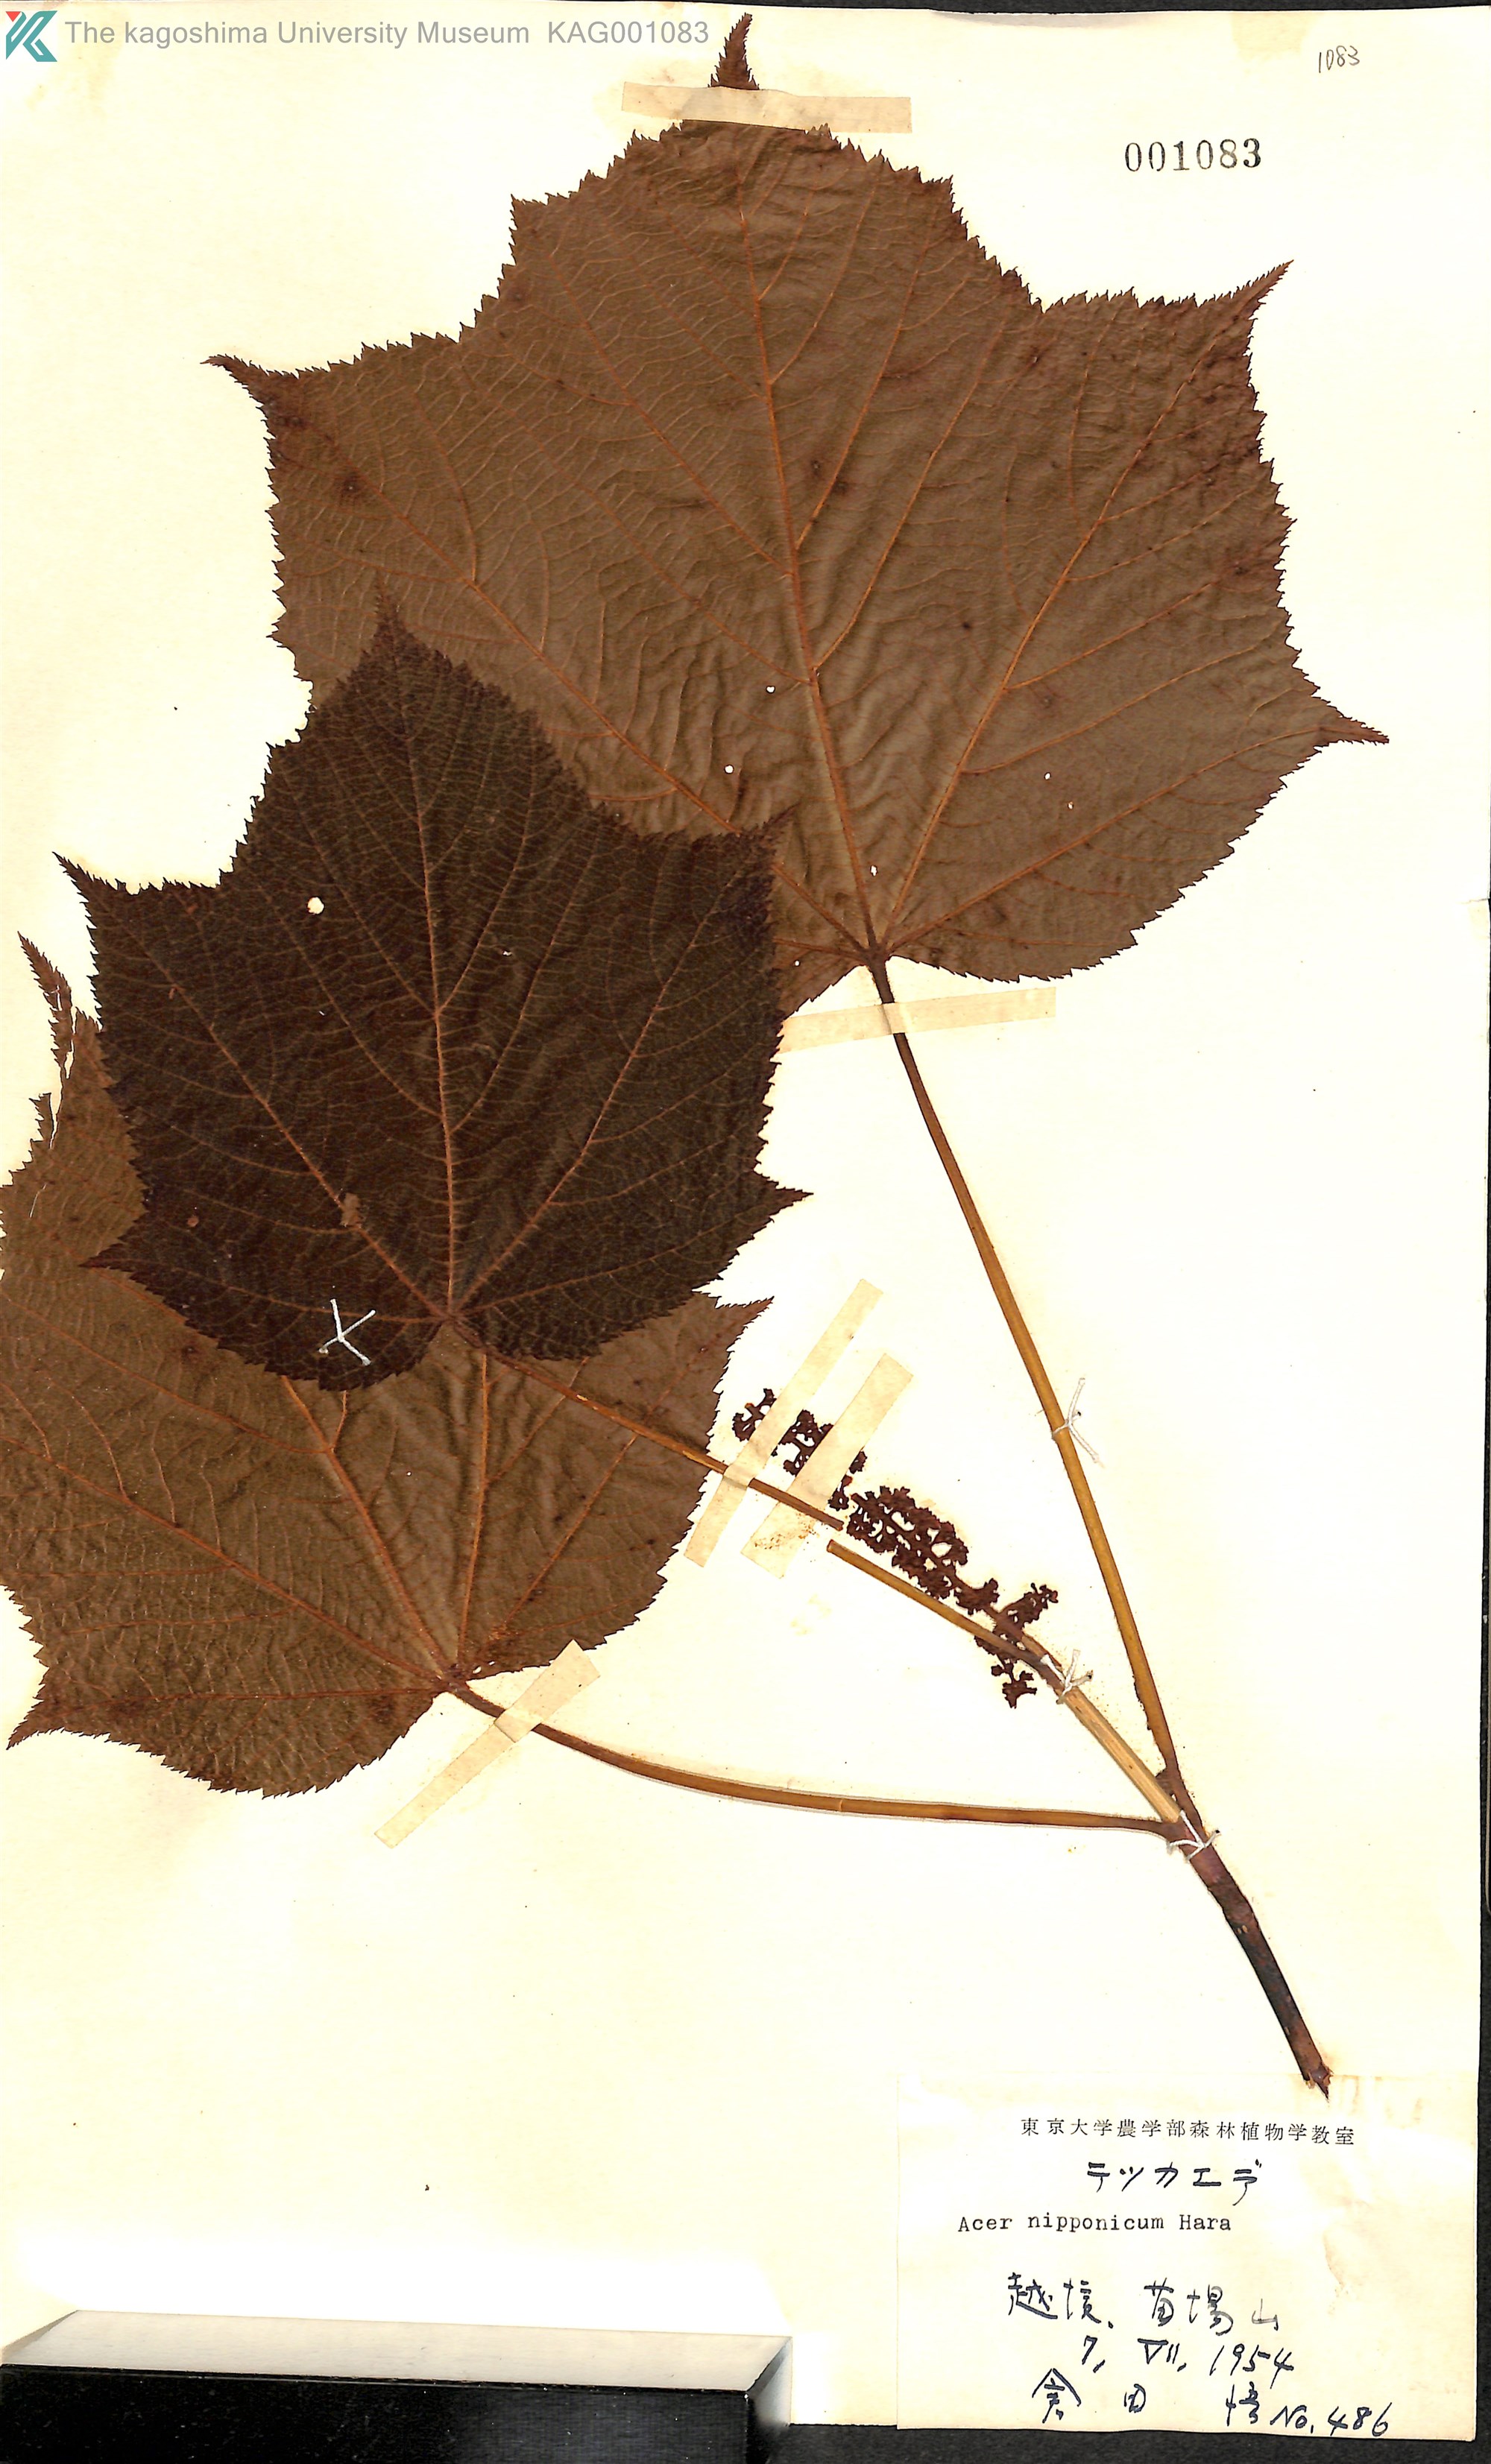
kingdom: Plantae
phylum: Tracheophyta
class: Magnoliopsida
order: Sapindales
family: Sapindaceae
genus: Acer
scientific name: Acer nipponicum
